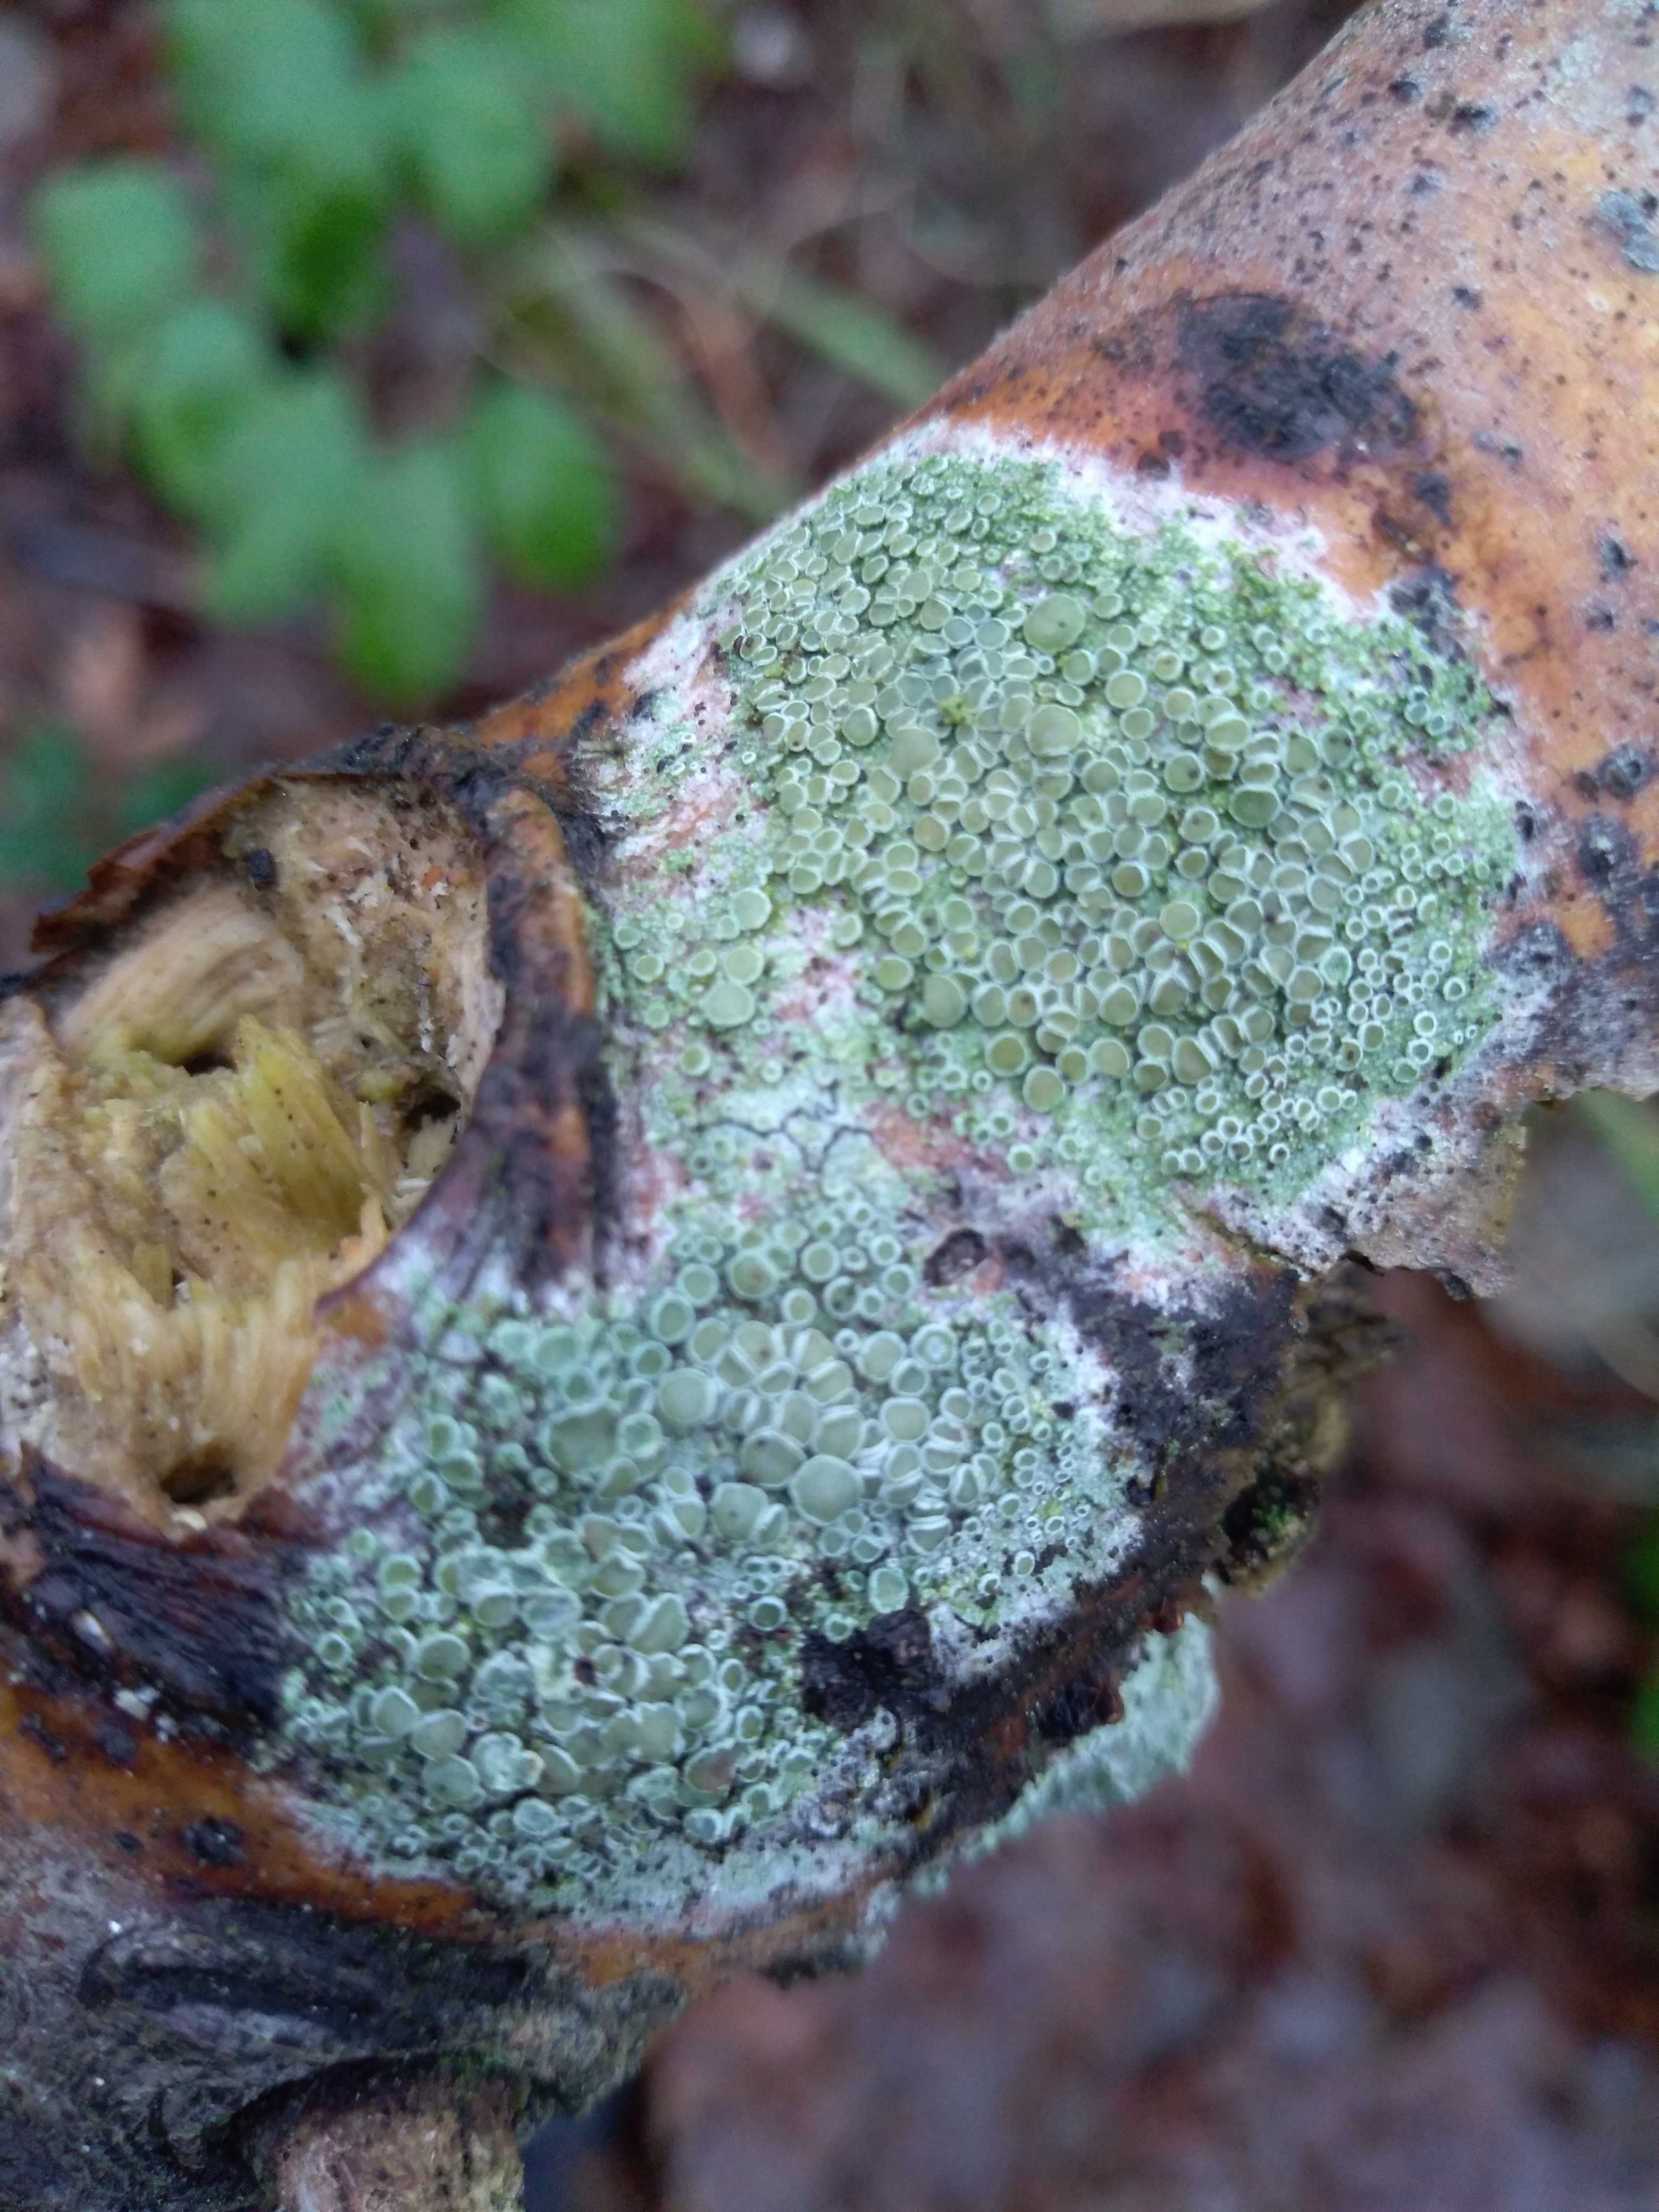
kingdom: Fungi
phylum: Ascomycota
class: Lecanoromycetes
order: Lecanorales
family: Lecanoraceae
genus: Lecanora
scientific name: Lecanora chlarotera
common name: brun kantskivelav
